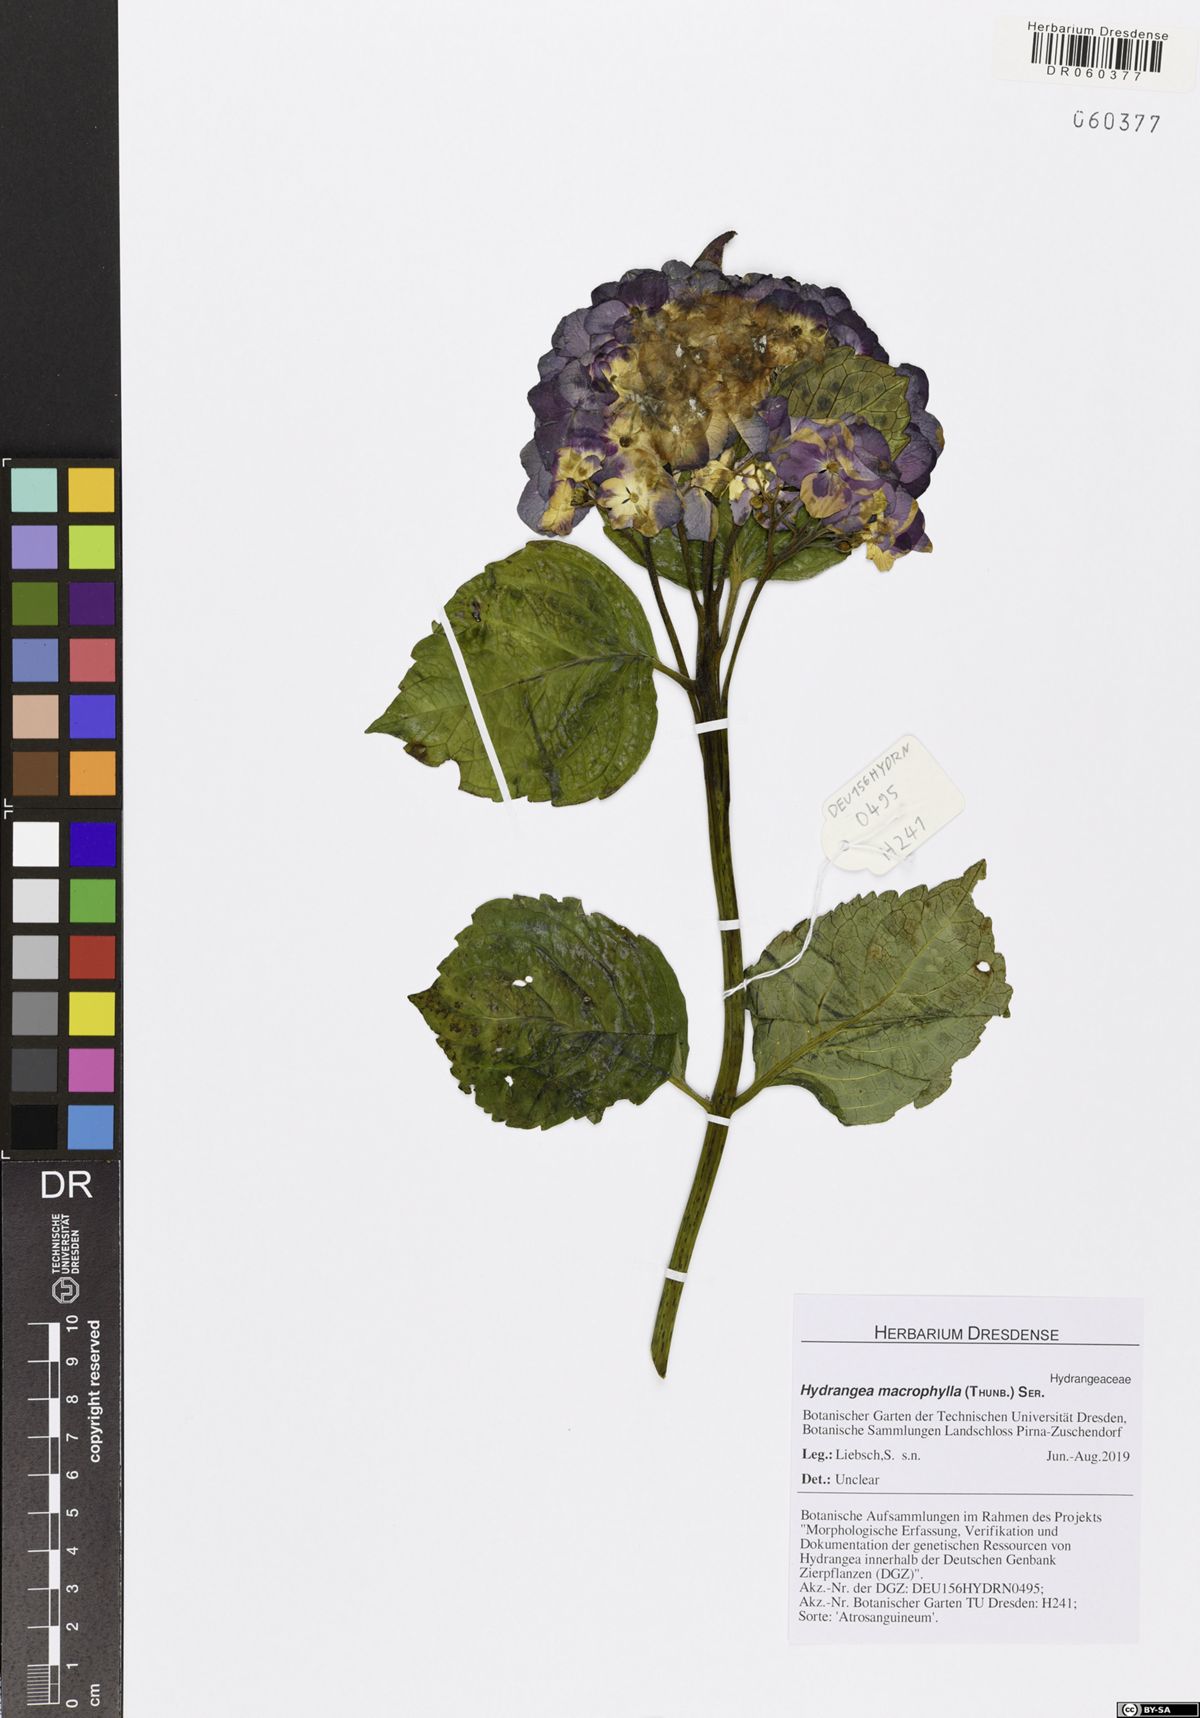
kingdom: Plantae
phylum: Tracheophyta
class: Magnoliopsida
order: Cornales
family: Hydrangeaceae
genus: Hydrangea
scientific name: Hydrangea macrophylla
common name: Hydrangea
